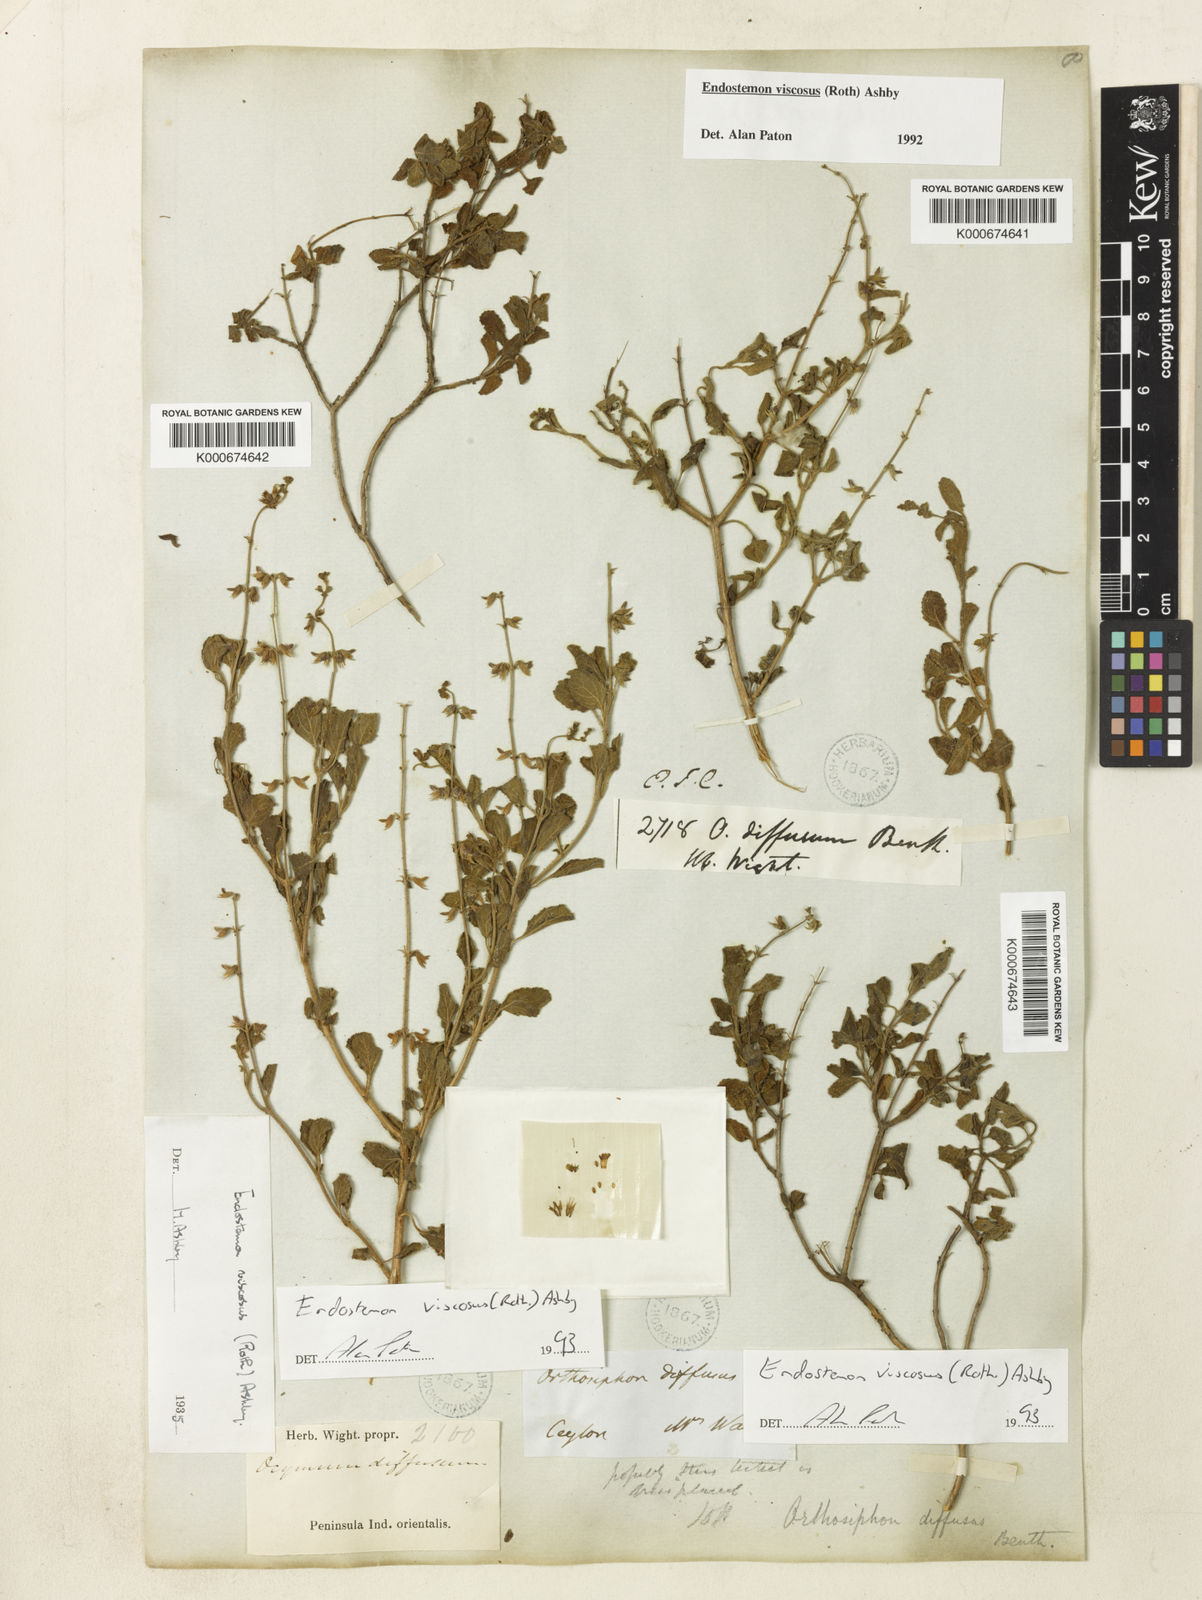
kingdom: Plantae
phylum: Tracheophyta
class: Magnoliopsida
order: Lamiales
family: Lamiaceae
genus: Endostemon
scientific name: Endostemon viscosus
